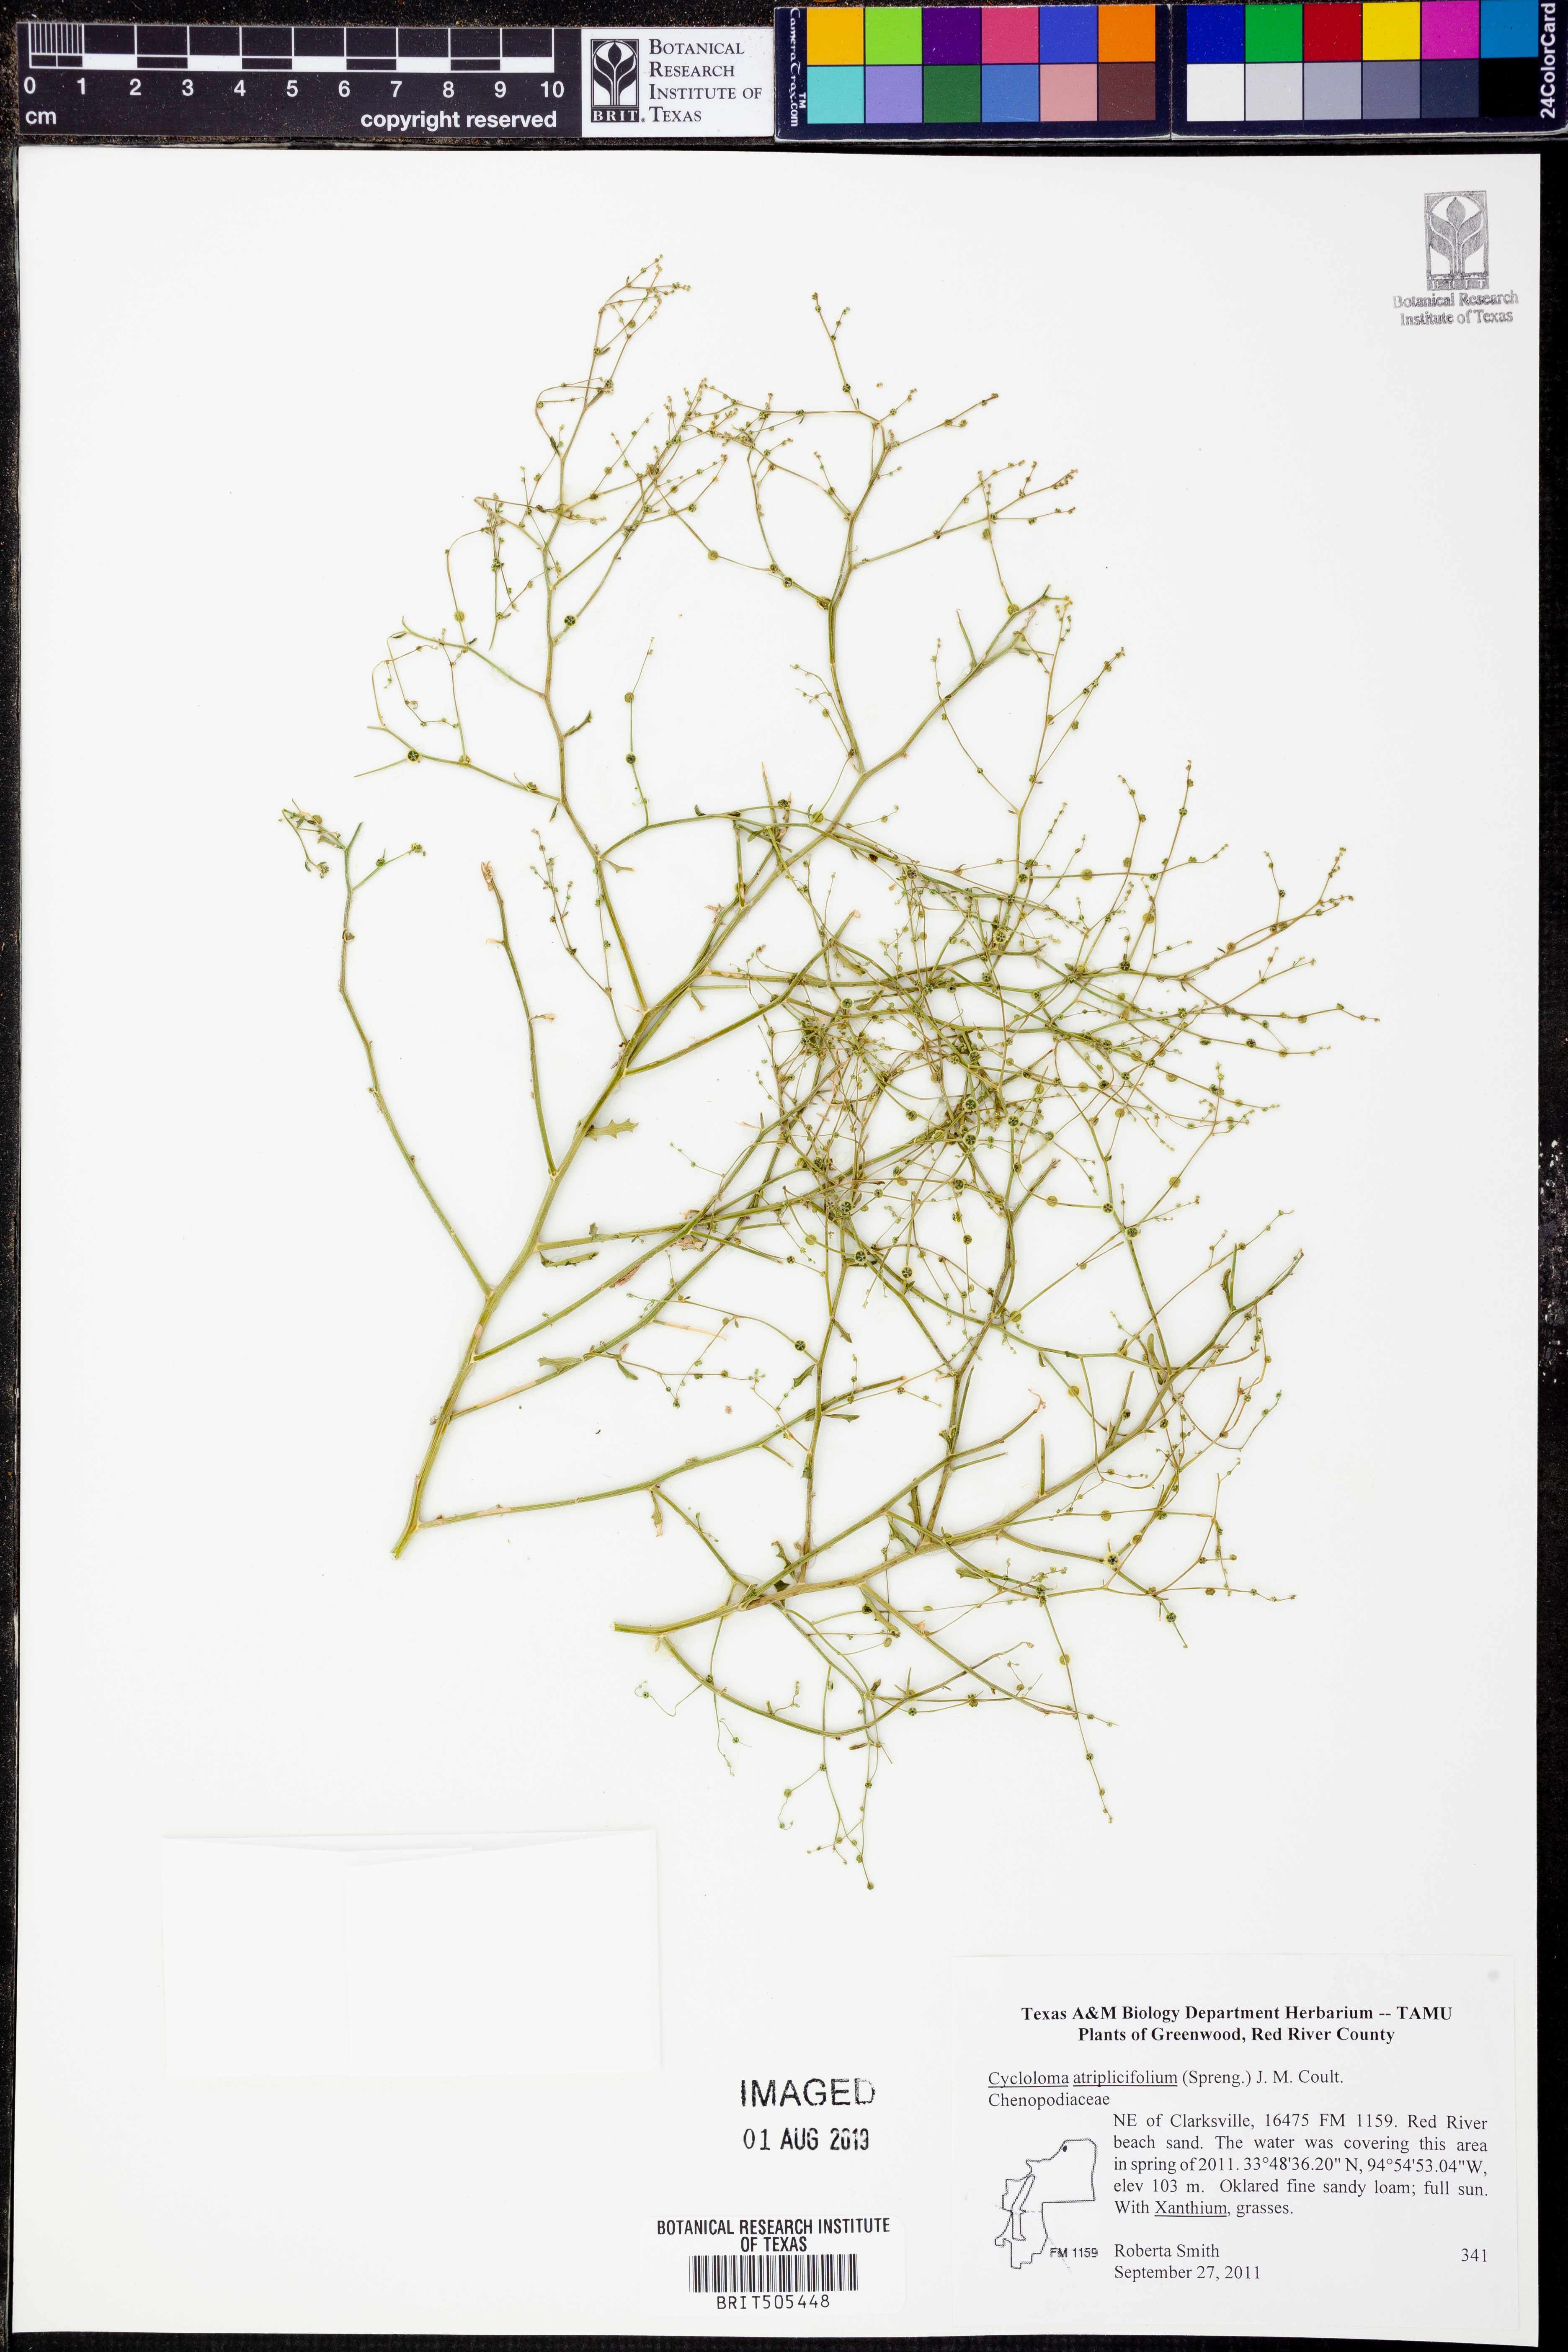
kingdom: Plantae
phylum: Tracheophyta
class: Magnoliopsida
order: Caryophyllales
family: Amaranthaceae
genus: Dysphania
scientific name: Dysphania atriplicifolia
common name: Plains tumbleweed
